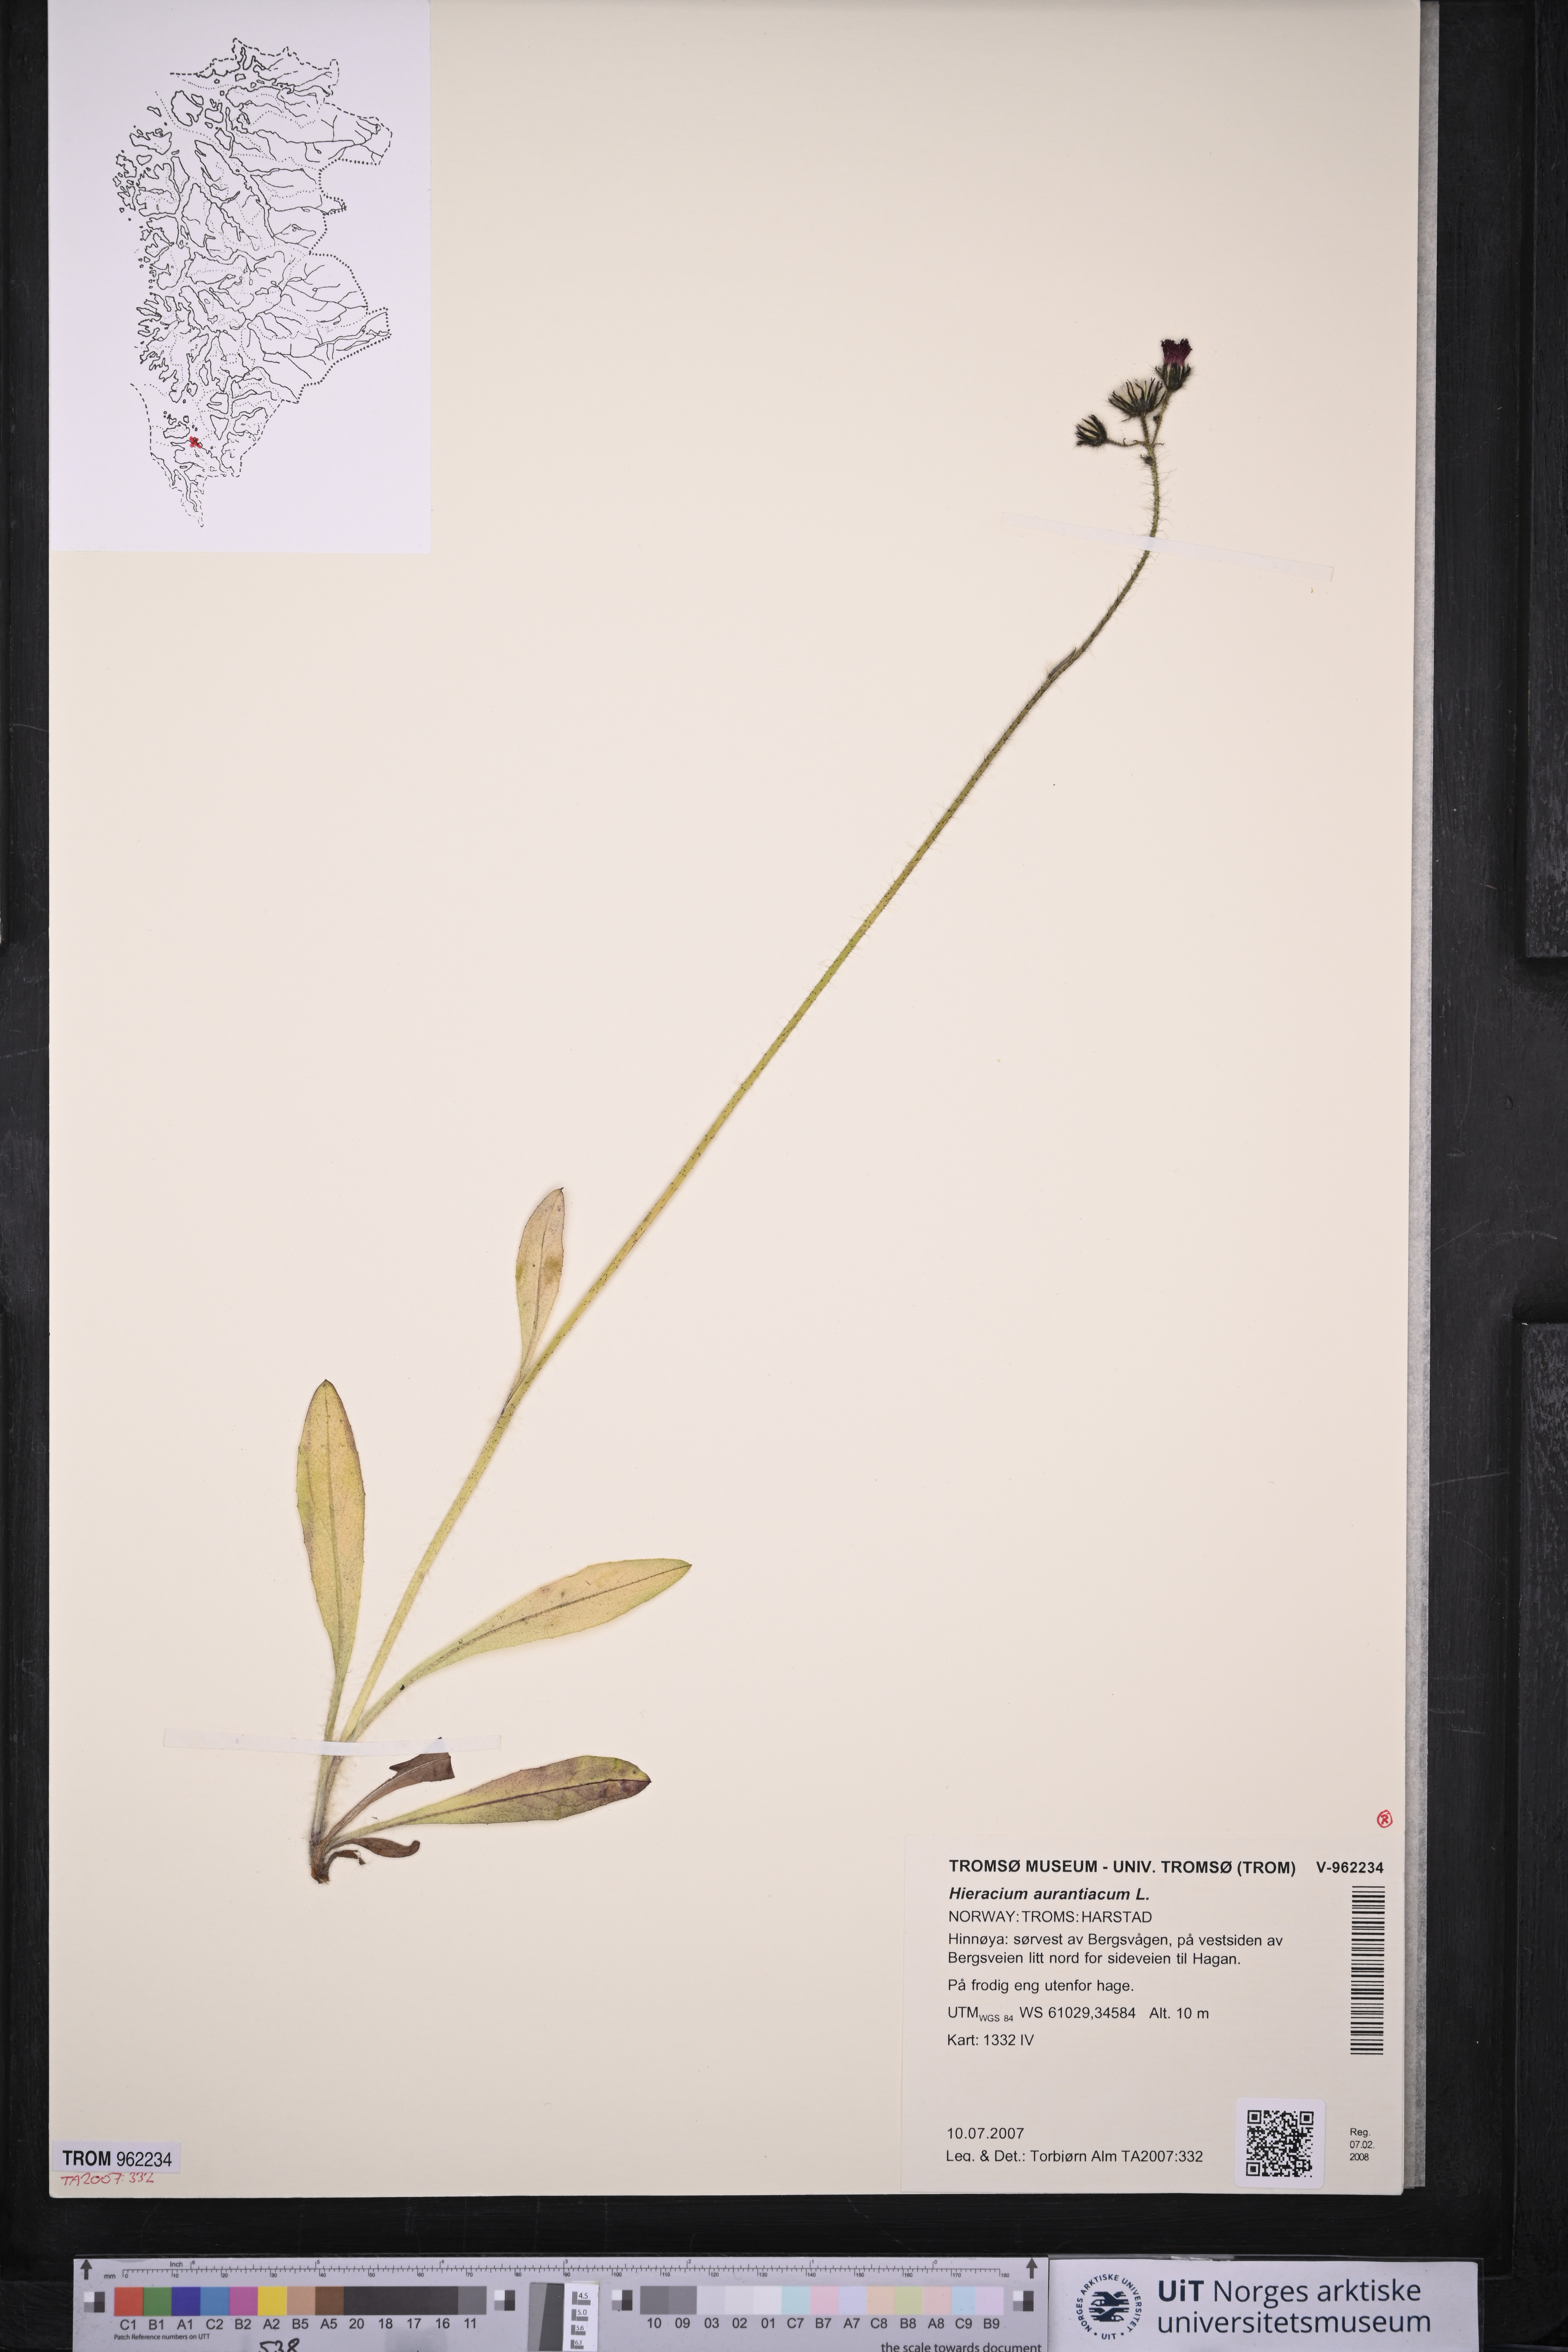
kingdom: Plantae
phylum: Tracheophyta
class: Magnoliopsida
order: Asterales
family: Asteraceae
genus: Pilosella
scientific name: Pilosella aurantiaca
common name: Fox-and-cubs
